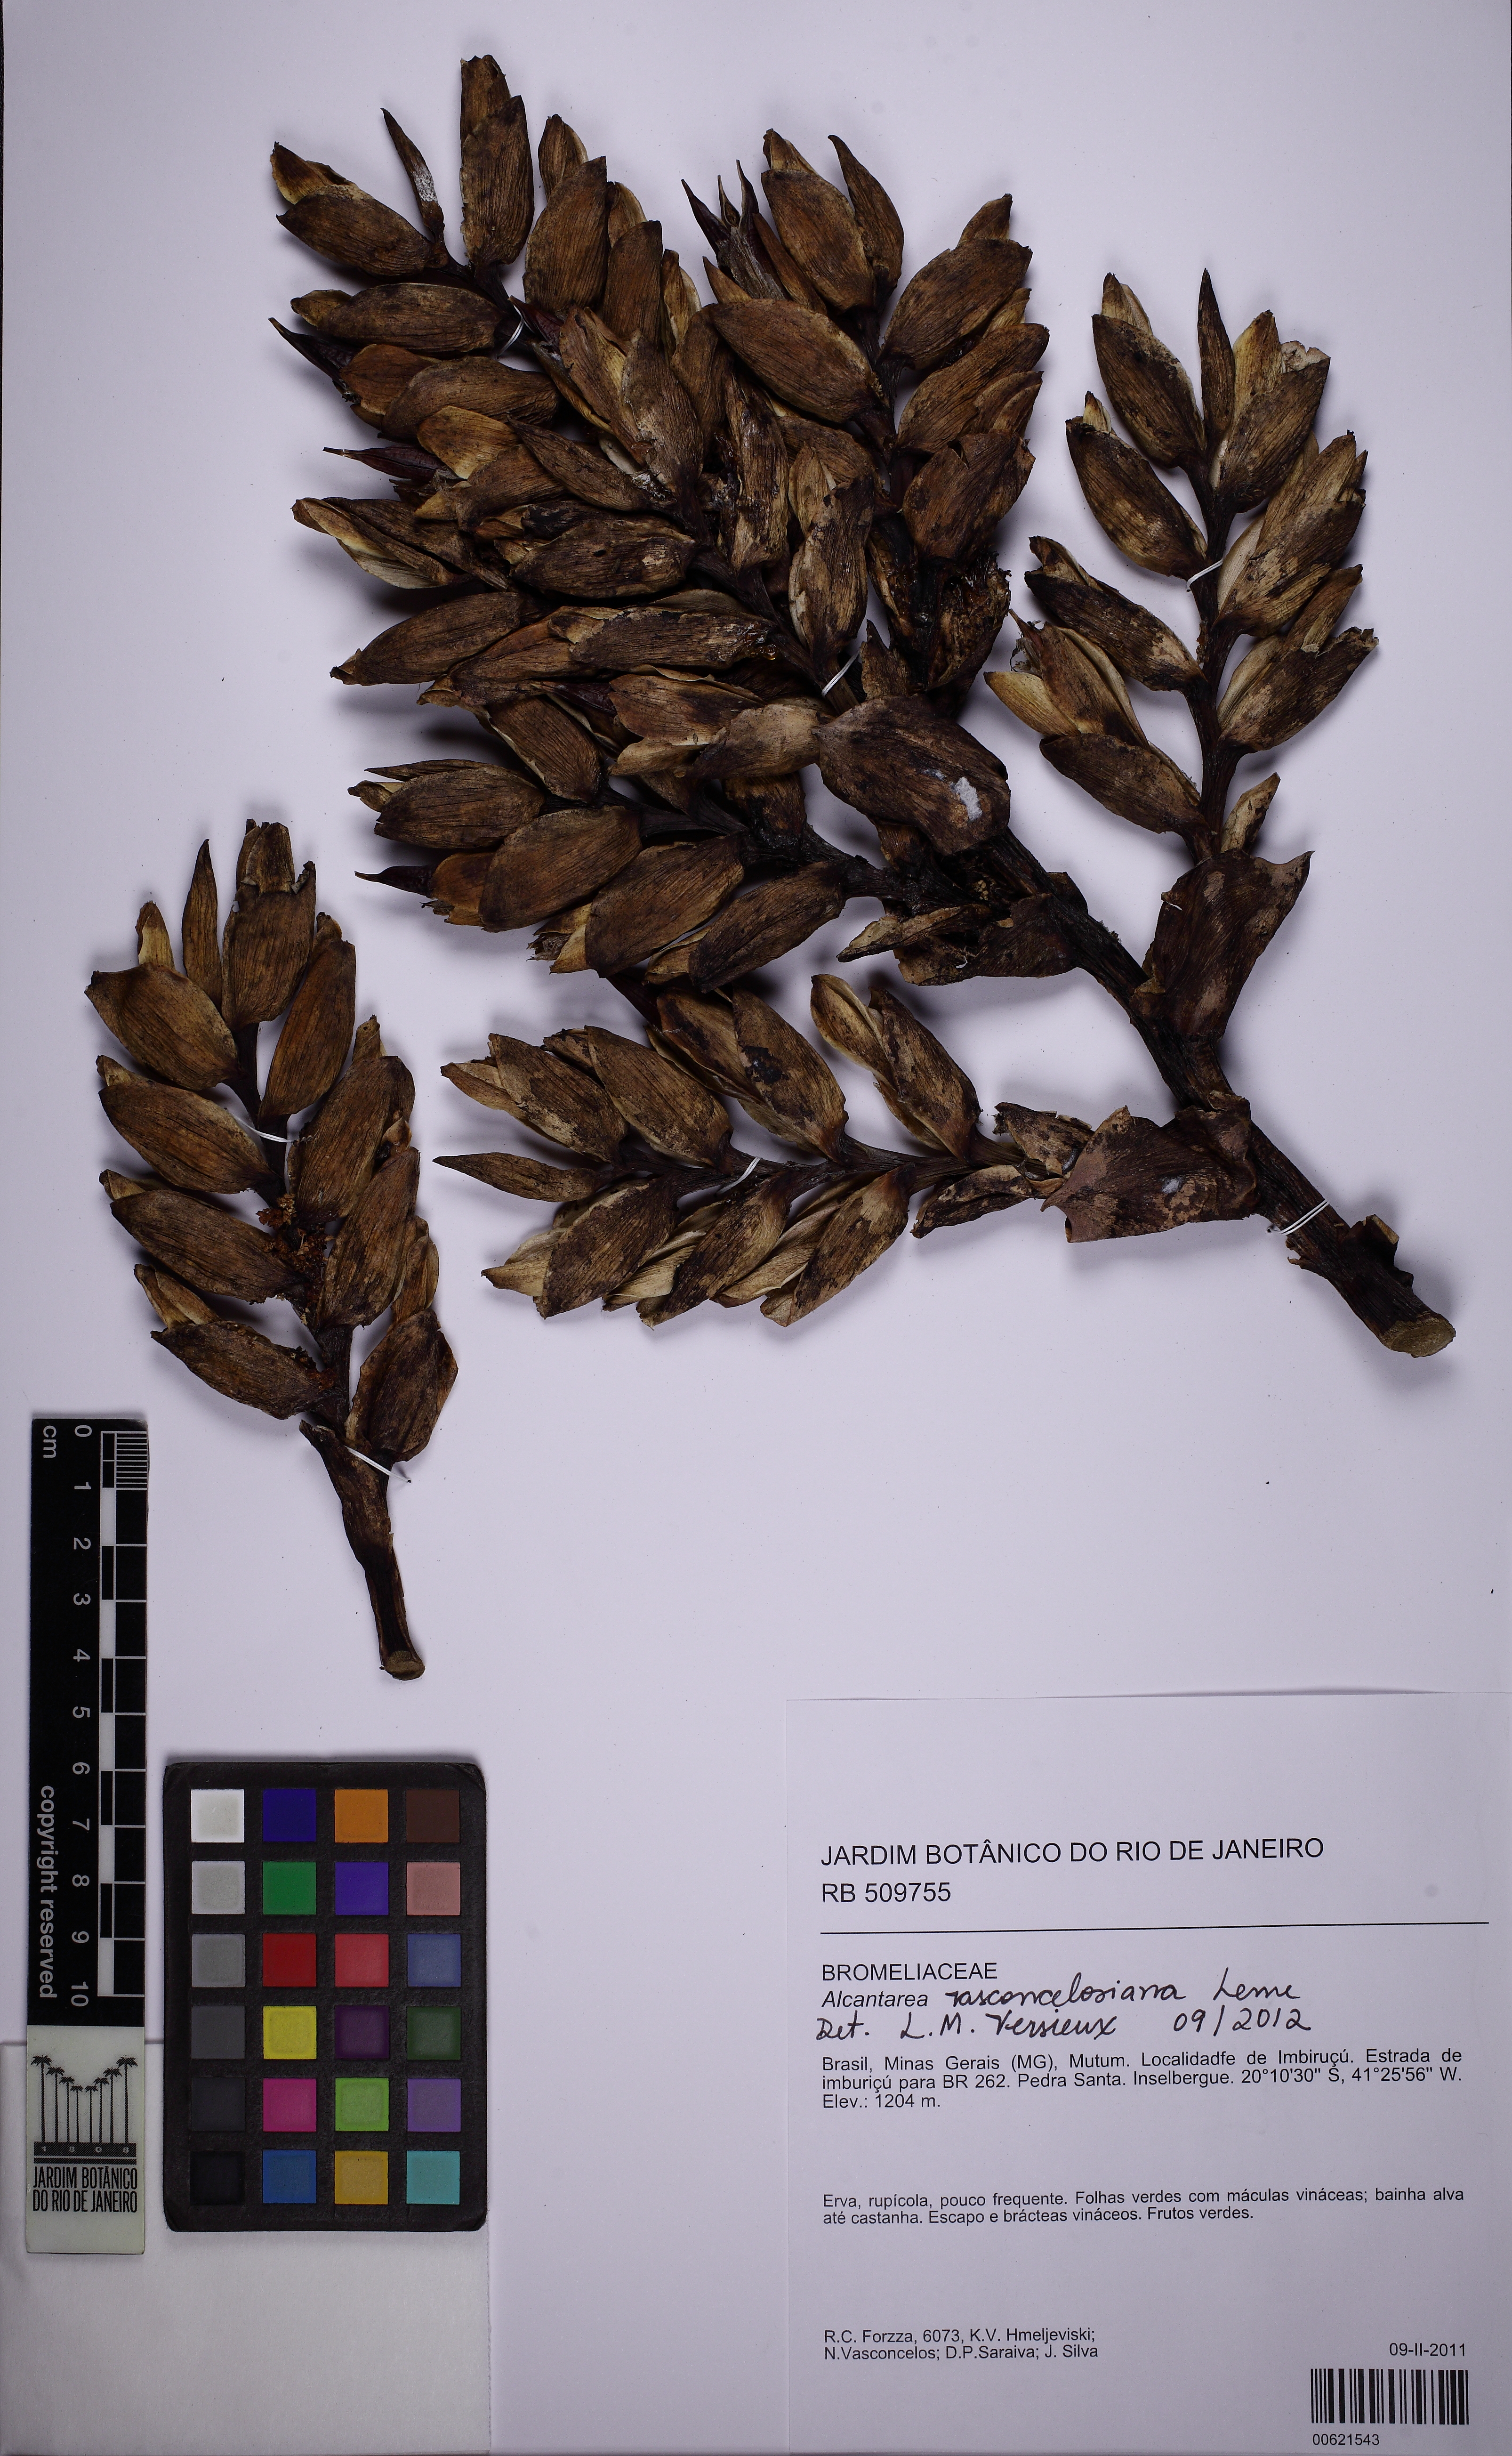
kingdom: Plantae
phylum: Tracheophyta
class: Liliopsida
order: Poales
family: Bromeliaceae
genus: Alcantarea
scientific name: Alcantarea vasconcelosiana
